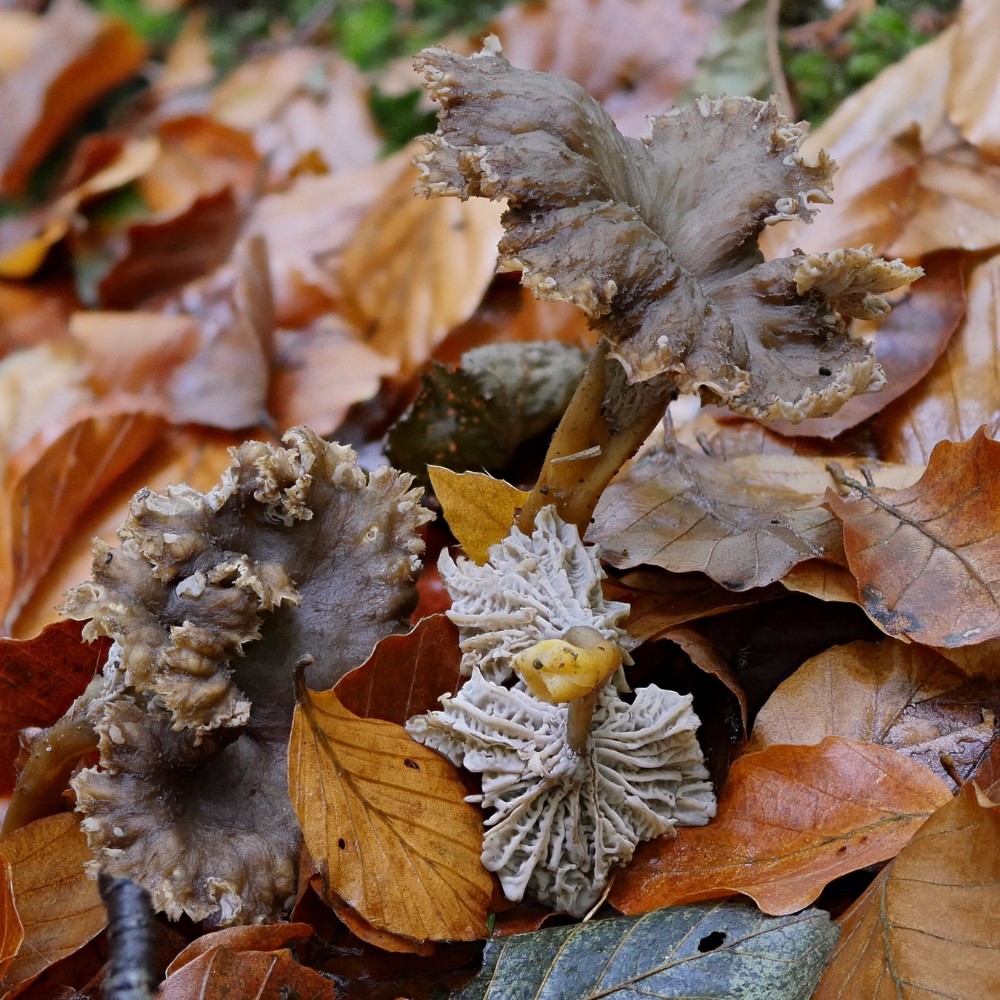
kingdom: Fungi
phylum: Basidiomycota
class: Agaricomycetes
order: Cantharellales
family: Hydnaceae
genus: Craterellus
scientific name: Craterellus tubaeformis
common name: tragt-kantarel
